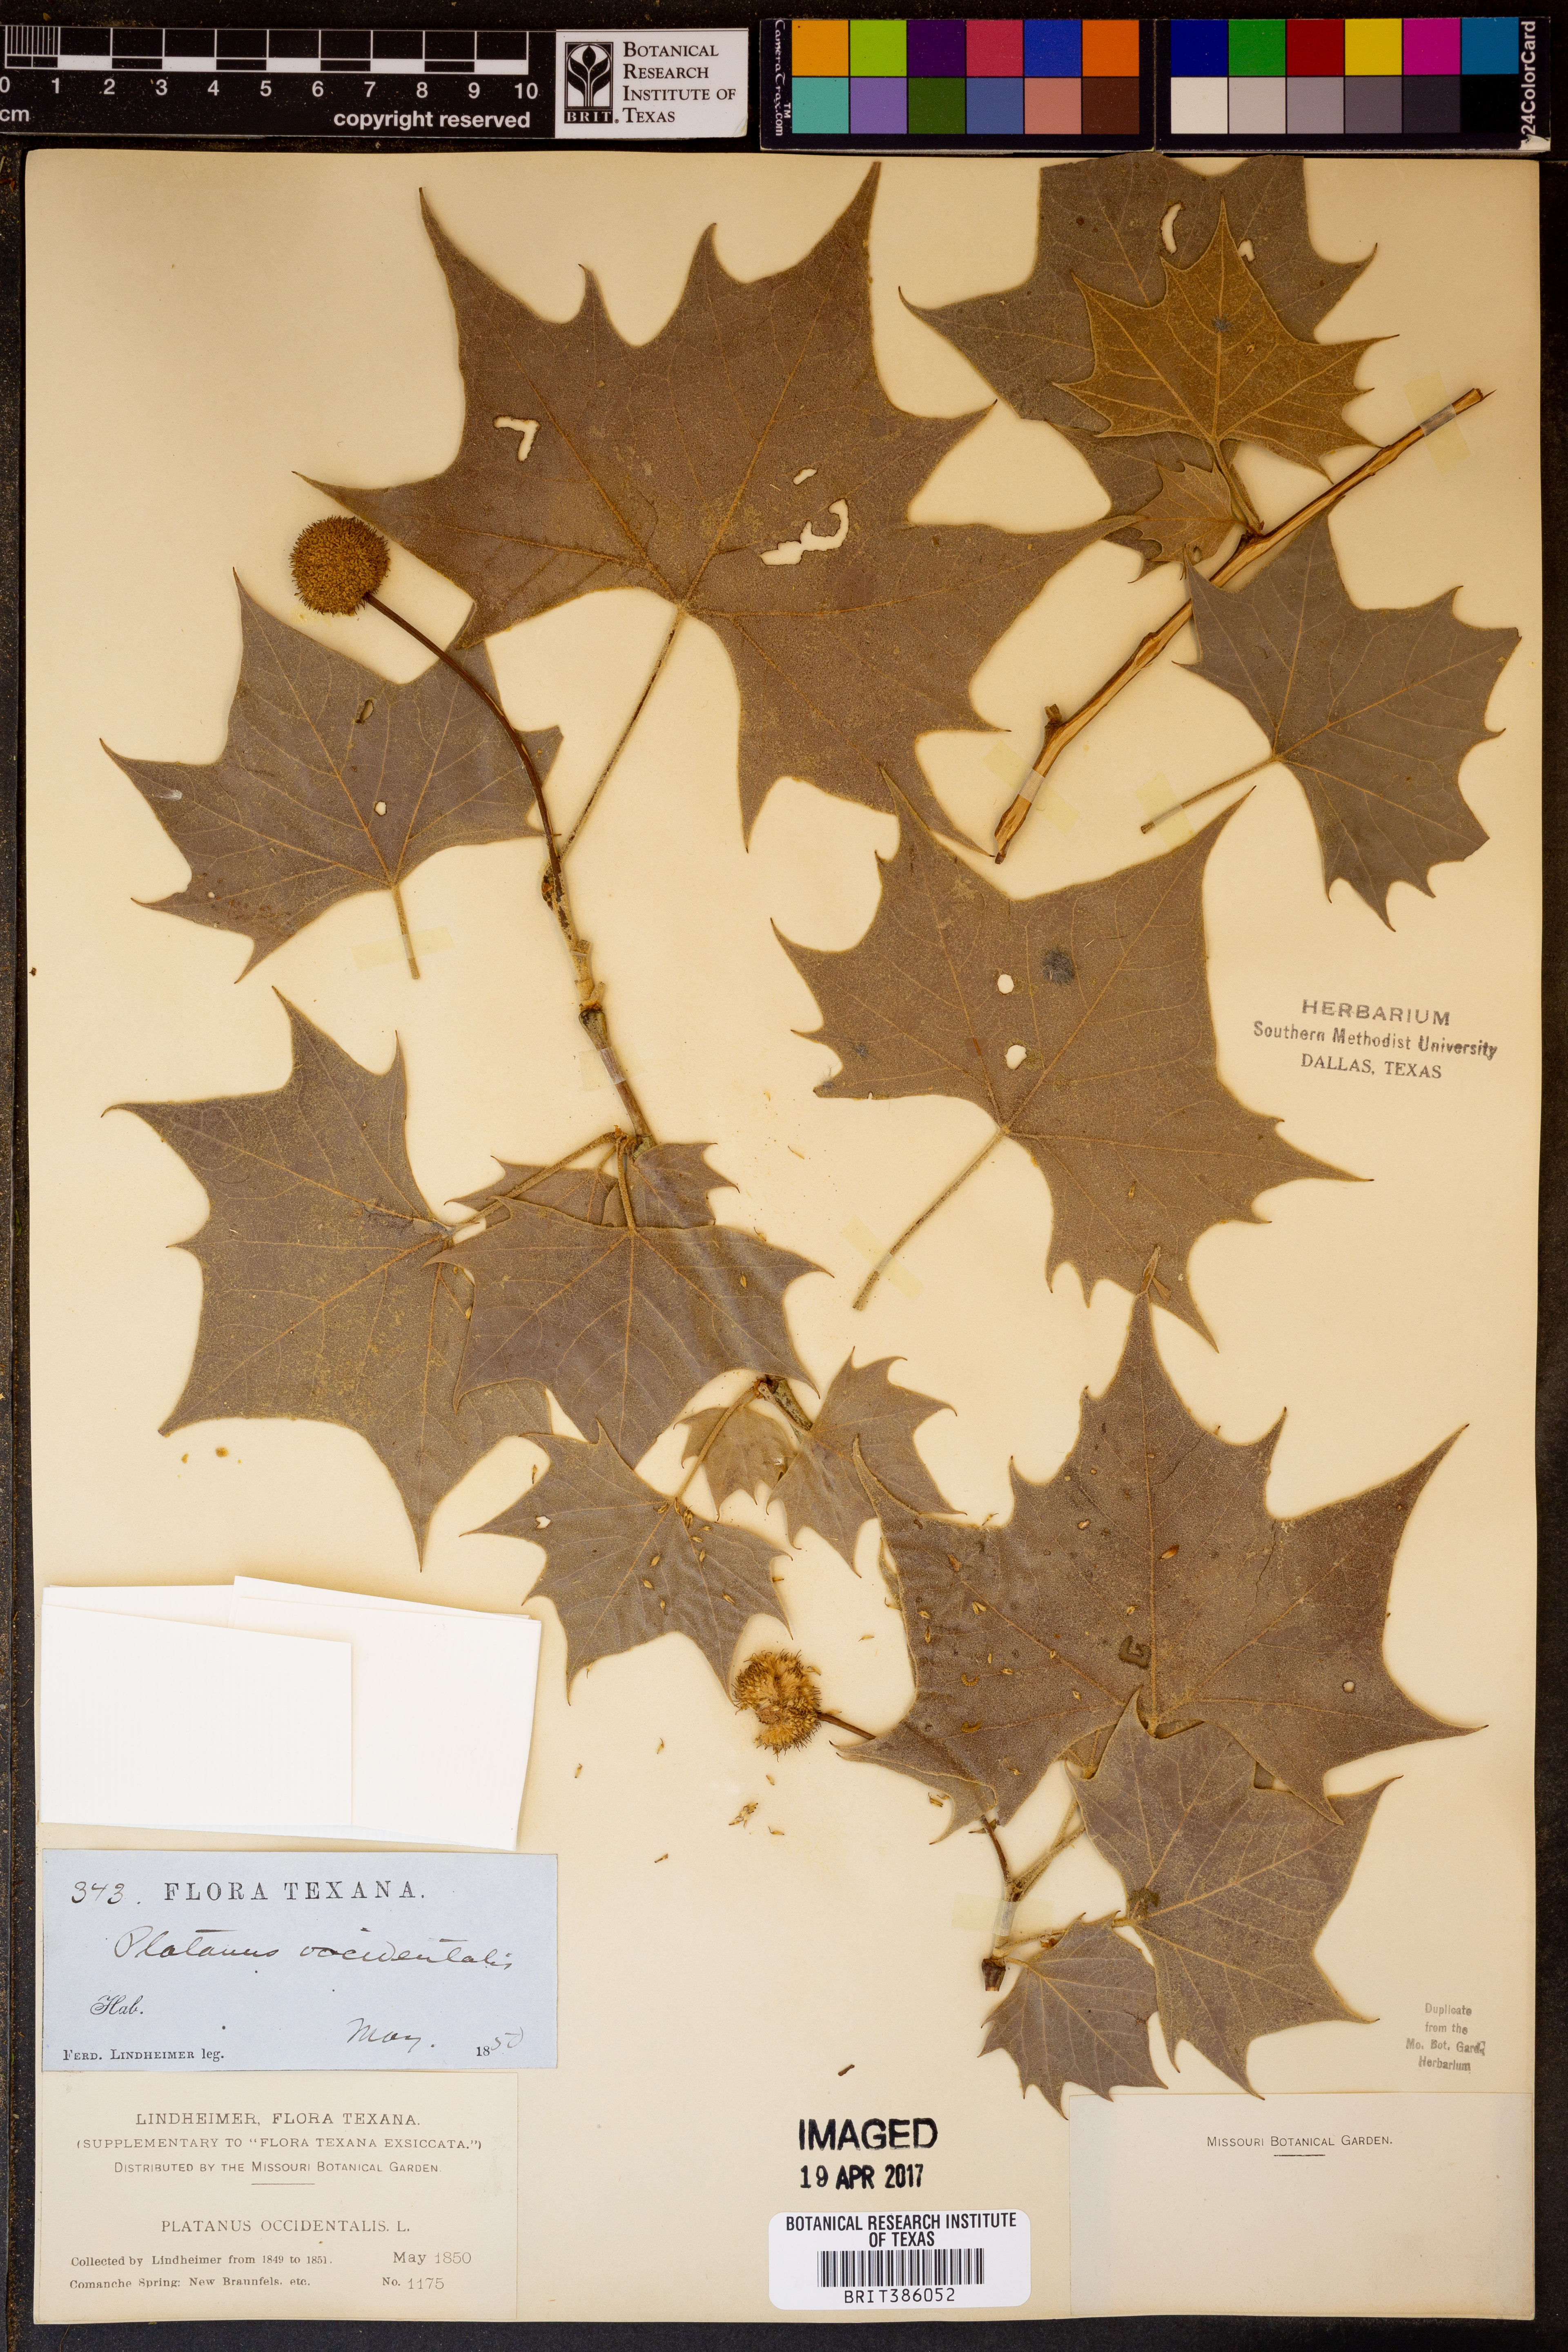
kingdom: Plantae
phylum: Tracheophyta
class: Magnoliopsida
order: Proteales
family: Platanaceae
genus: Platanus
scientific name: Platanus occidentalis
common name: American sycamore
